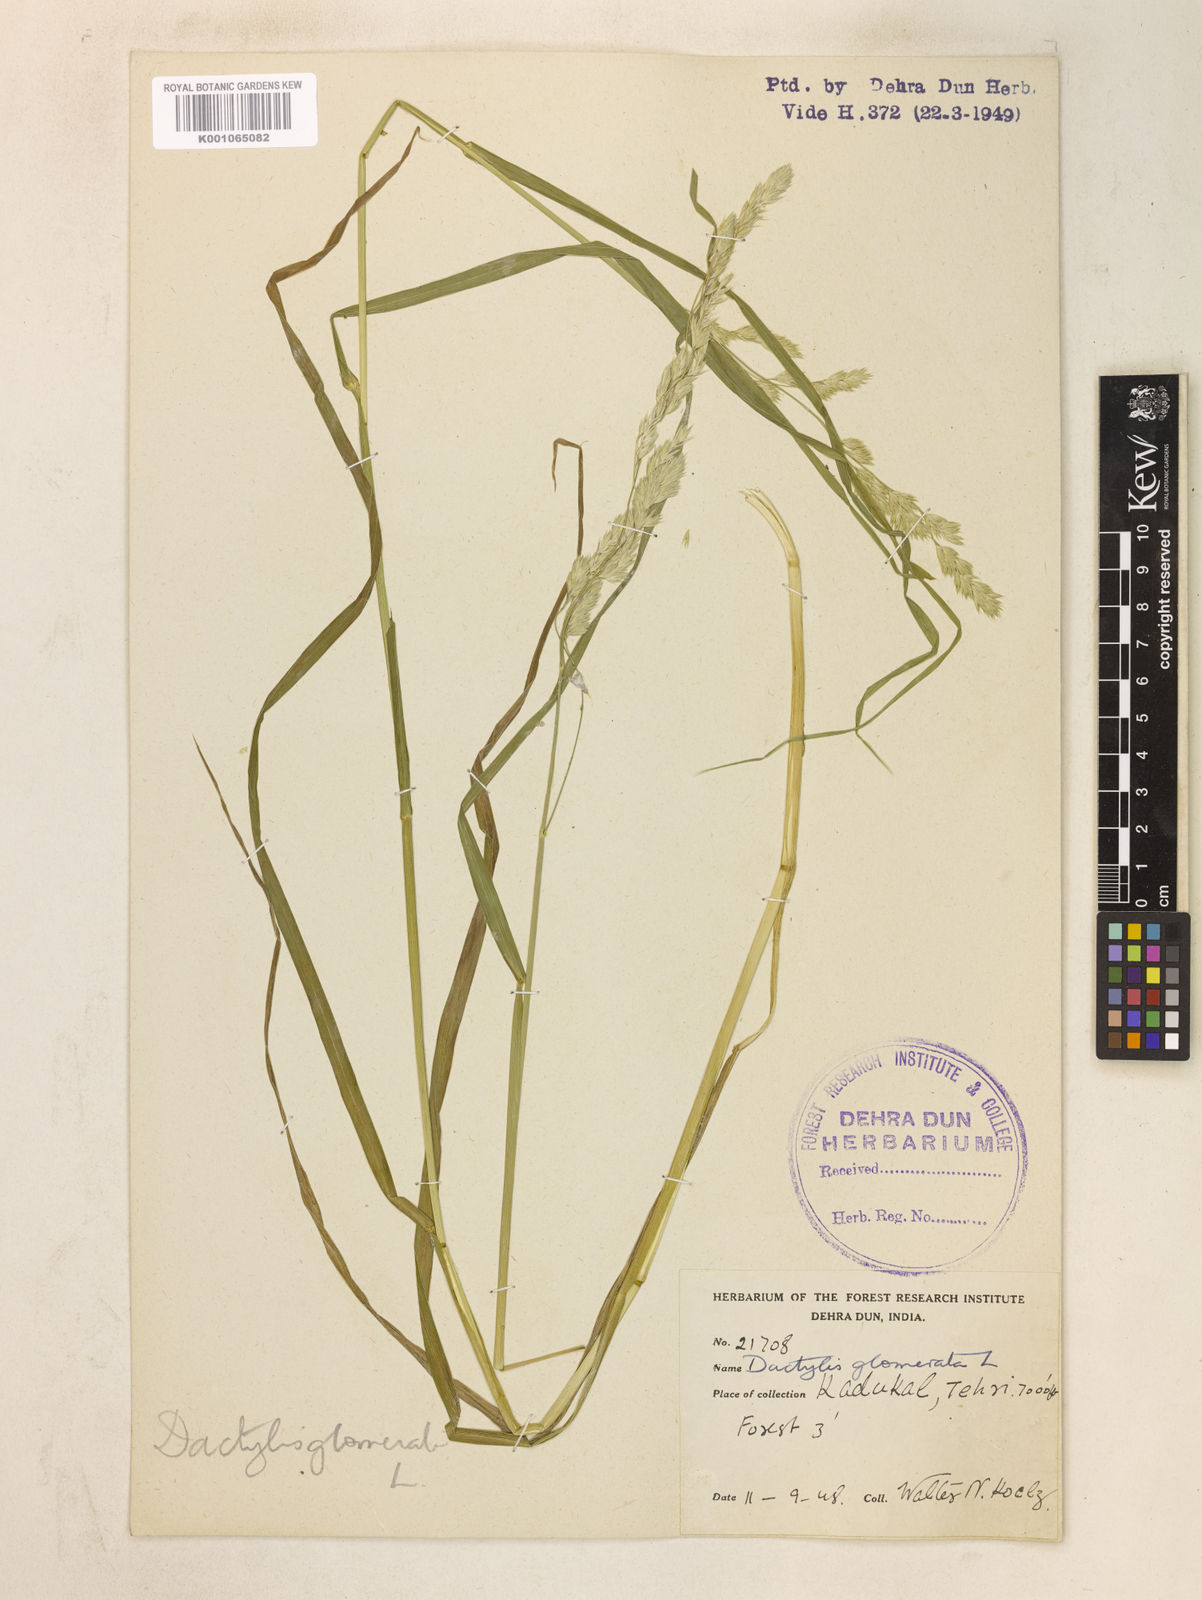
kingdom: Plantae
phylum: Tracheophyta
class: Liliopsida
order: Poales
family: Poaceae
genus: Dactylis
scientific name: Dactylis glomerata
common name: Orchardgrass
